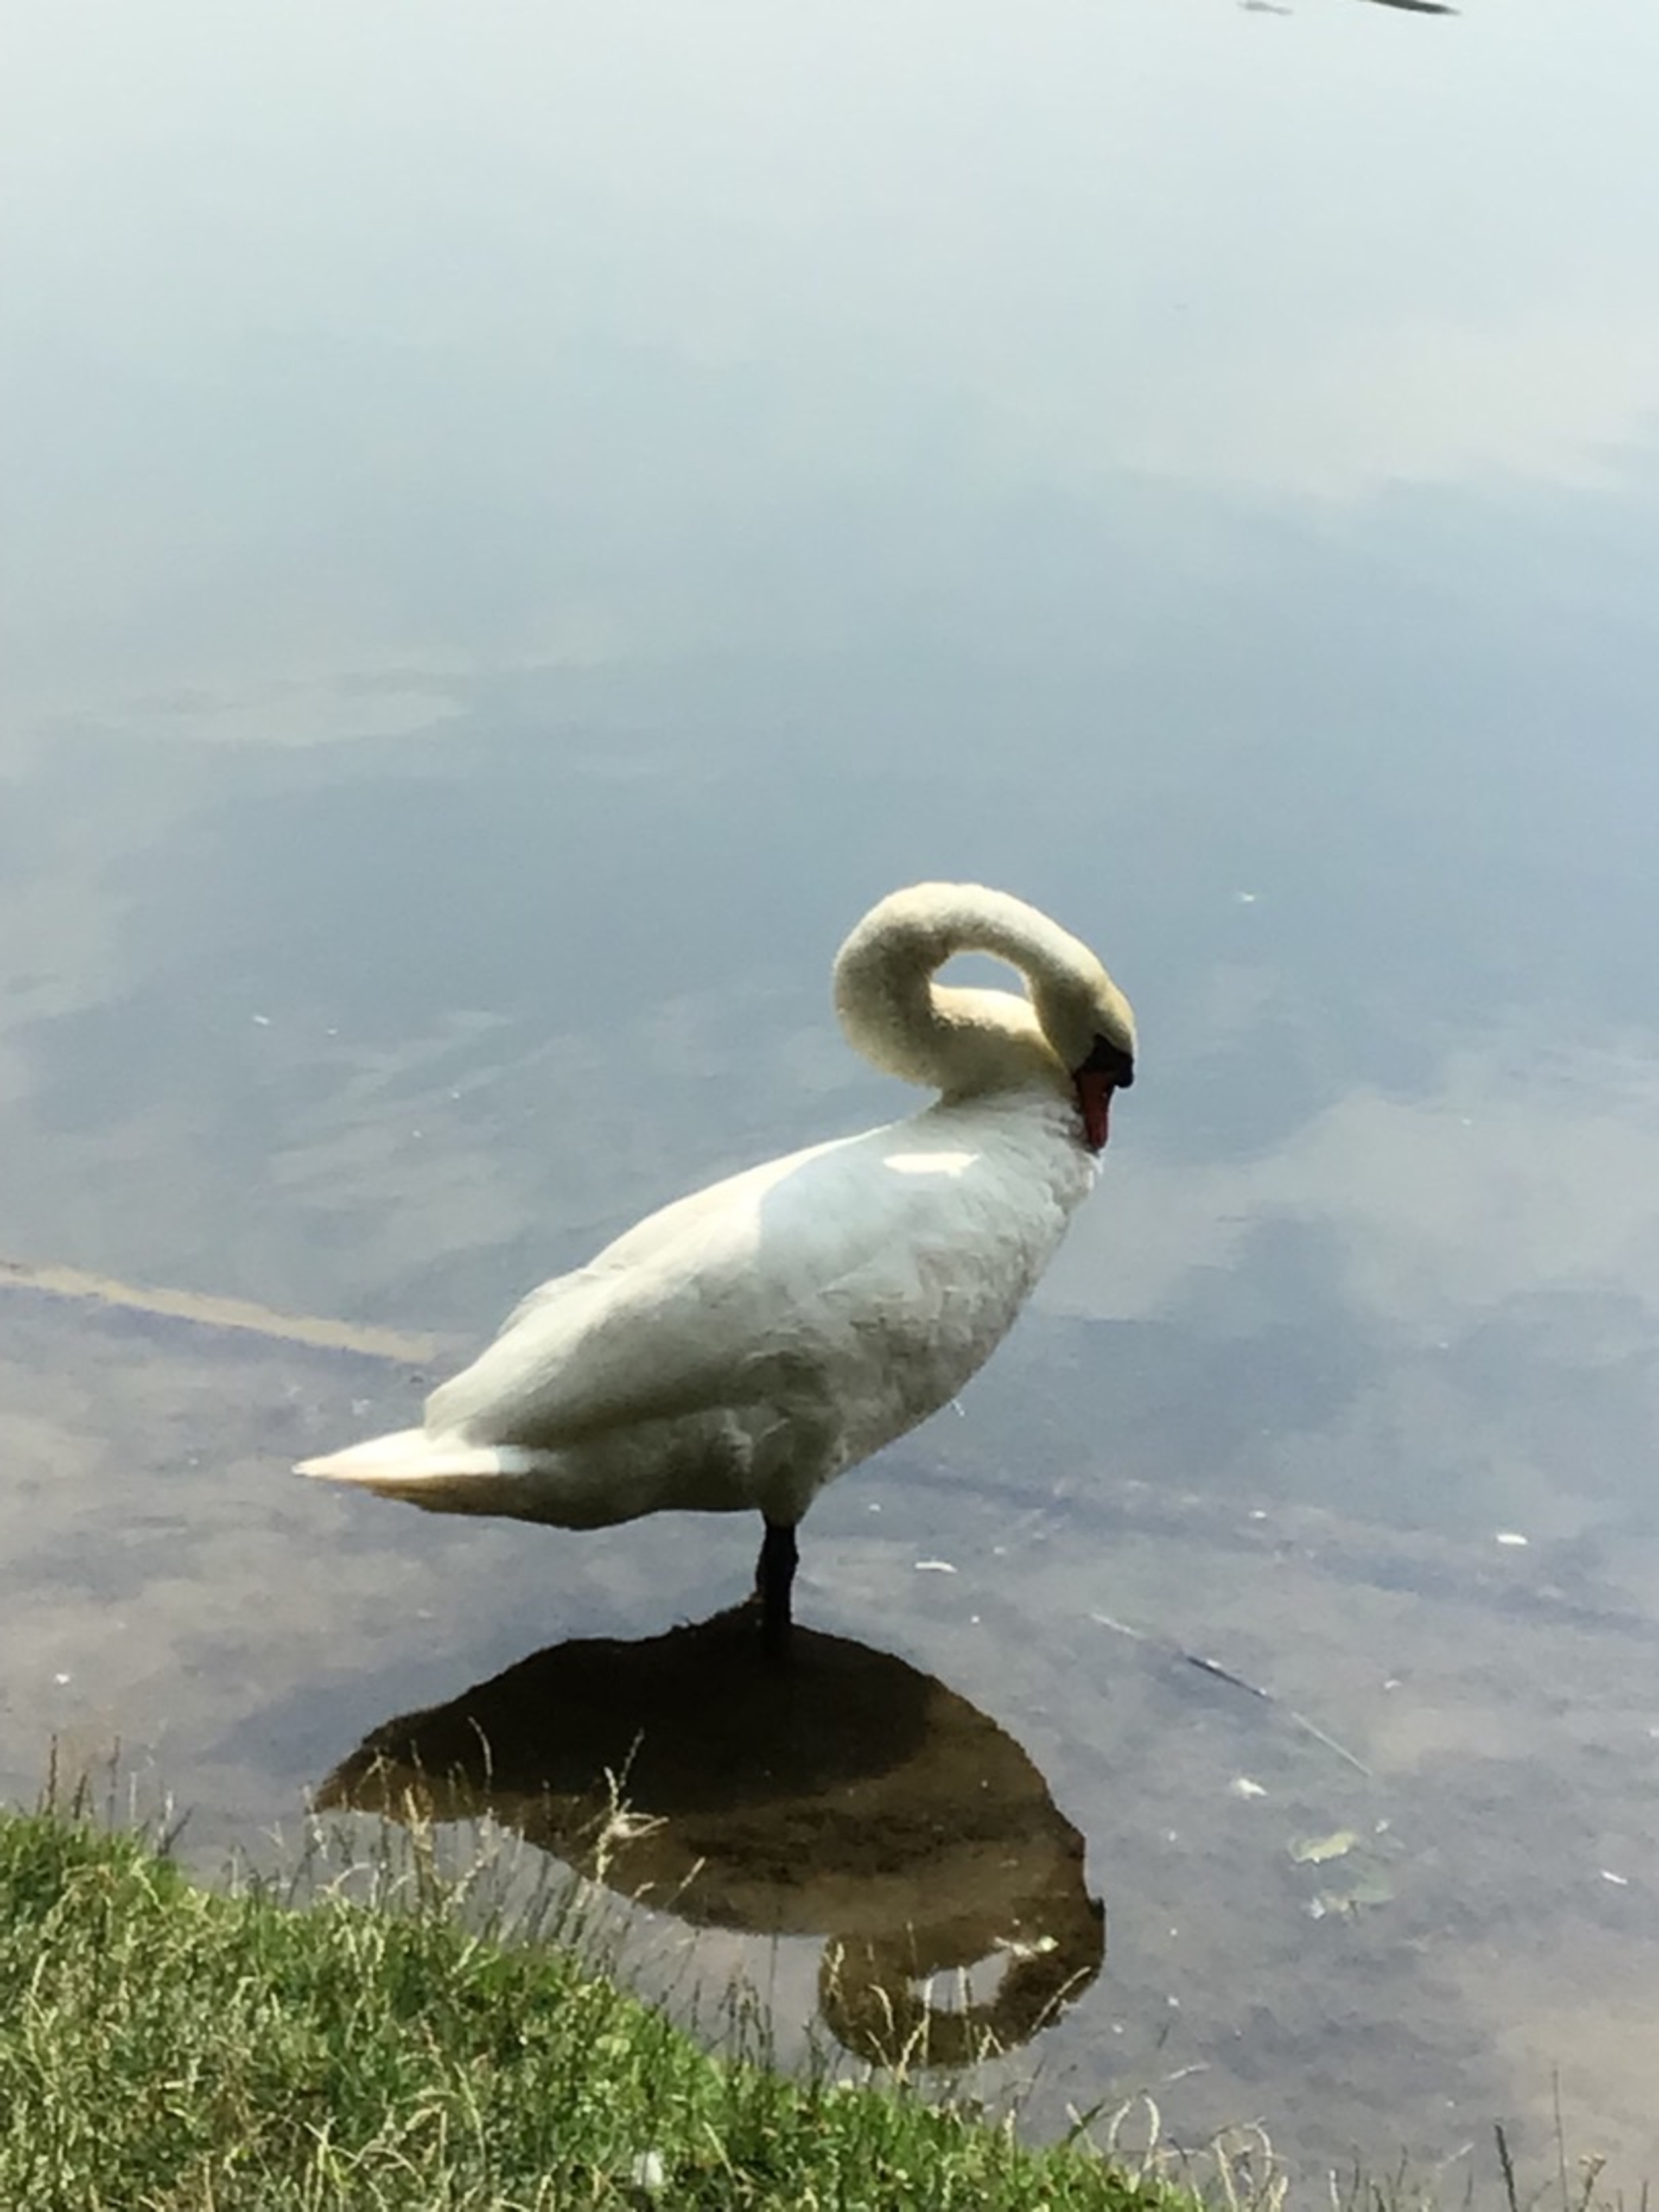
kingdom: Animalia
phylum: Chordata
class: Aves
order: Anseriformes
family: Anatidae
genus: Cygnus
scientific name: Cygnus olor
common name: Knopsvane
